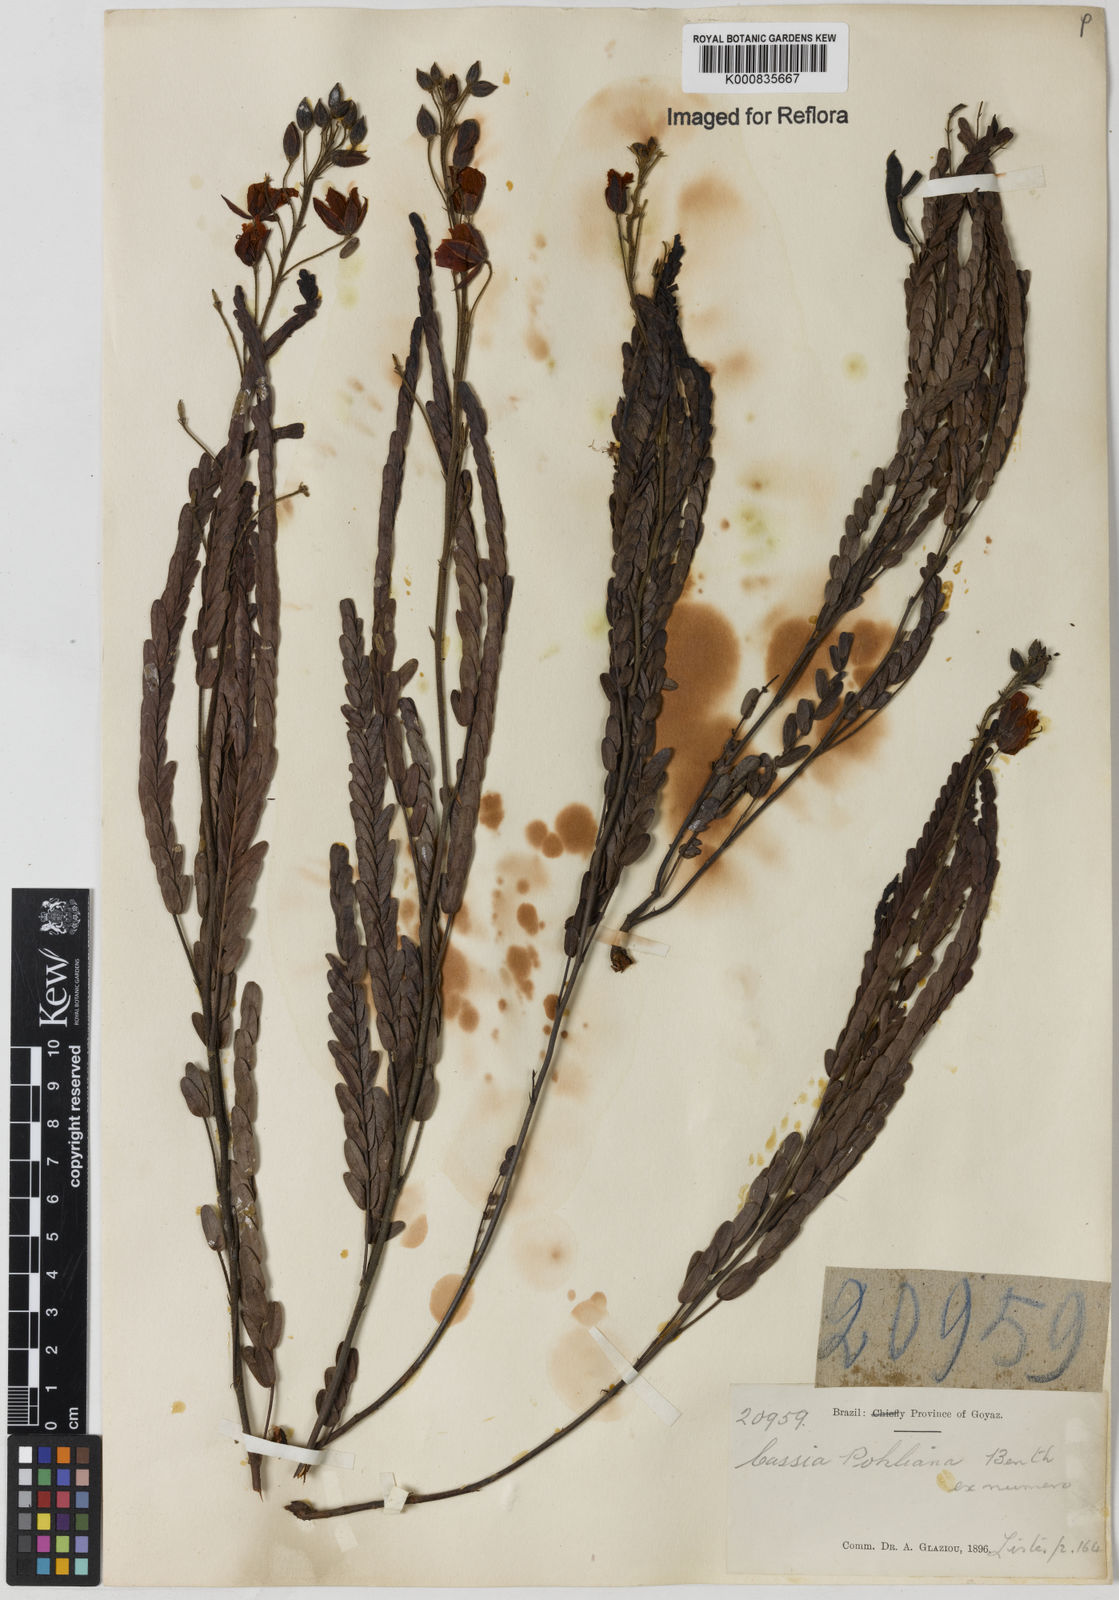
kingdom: Plantae
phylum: Tracheophyta
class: Magnoliopsida
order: Fabales
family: Fabaceae
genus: Chamaecrista
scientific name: Chamaecrista pohliana
